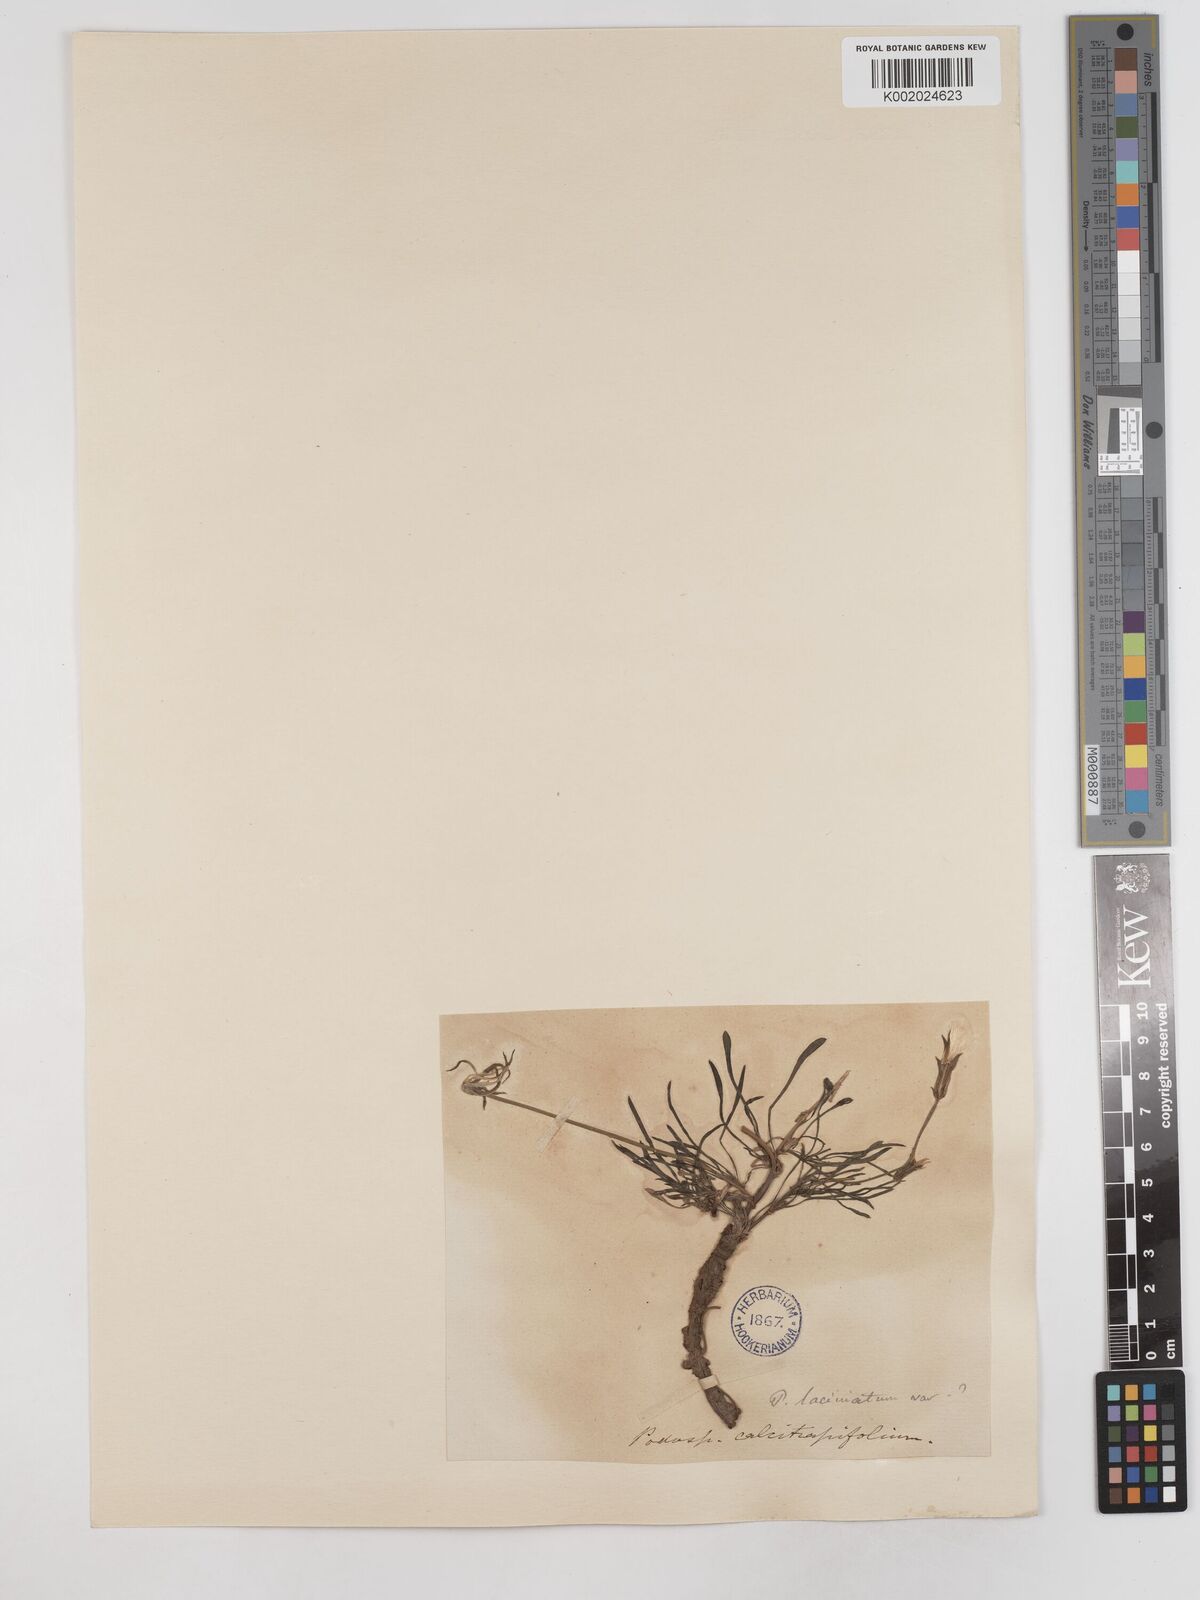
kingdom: Plantae
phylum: Tracheophyta
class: Magnoliopsida
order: Asterales
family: Asteraceae
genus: Scorzonera
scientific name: Scorzonera laciniata
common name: Cutleaf vipergrass
